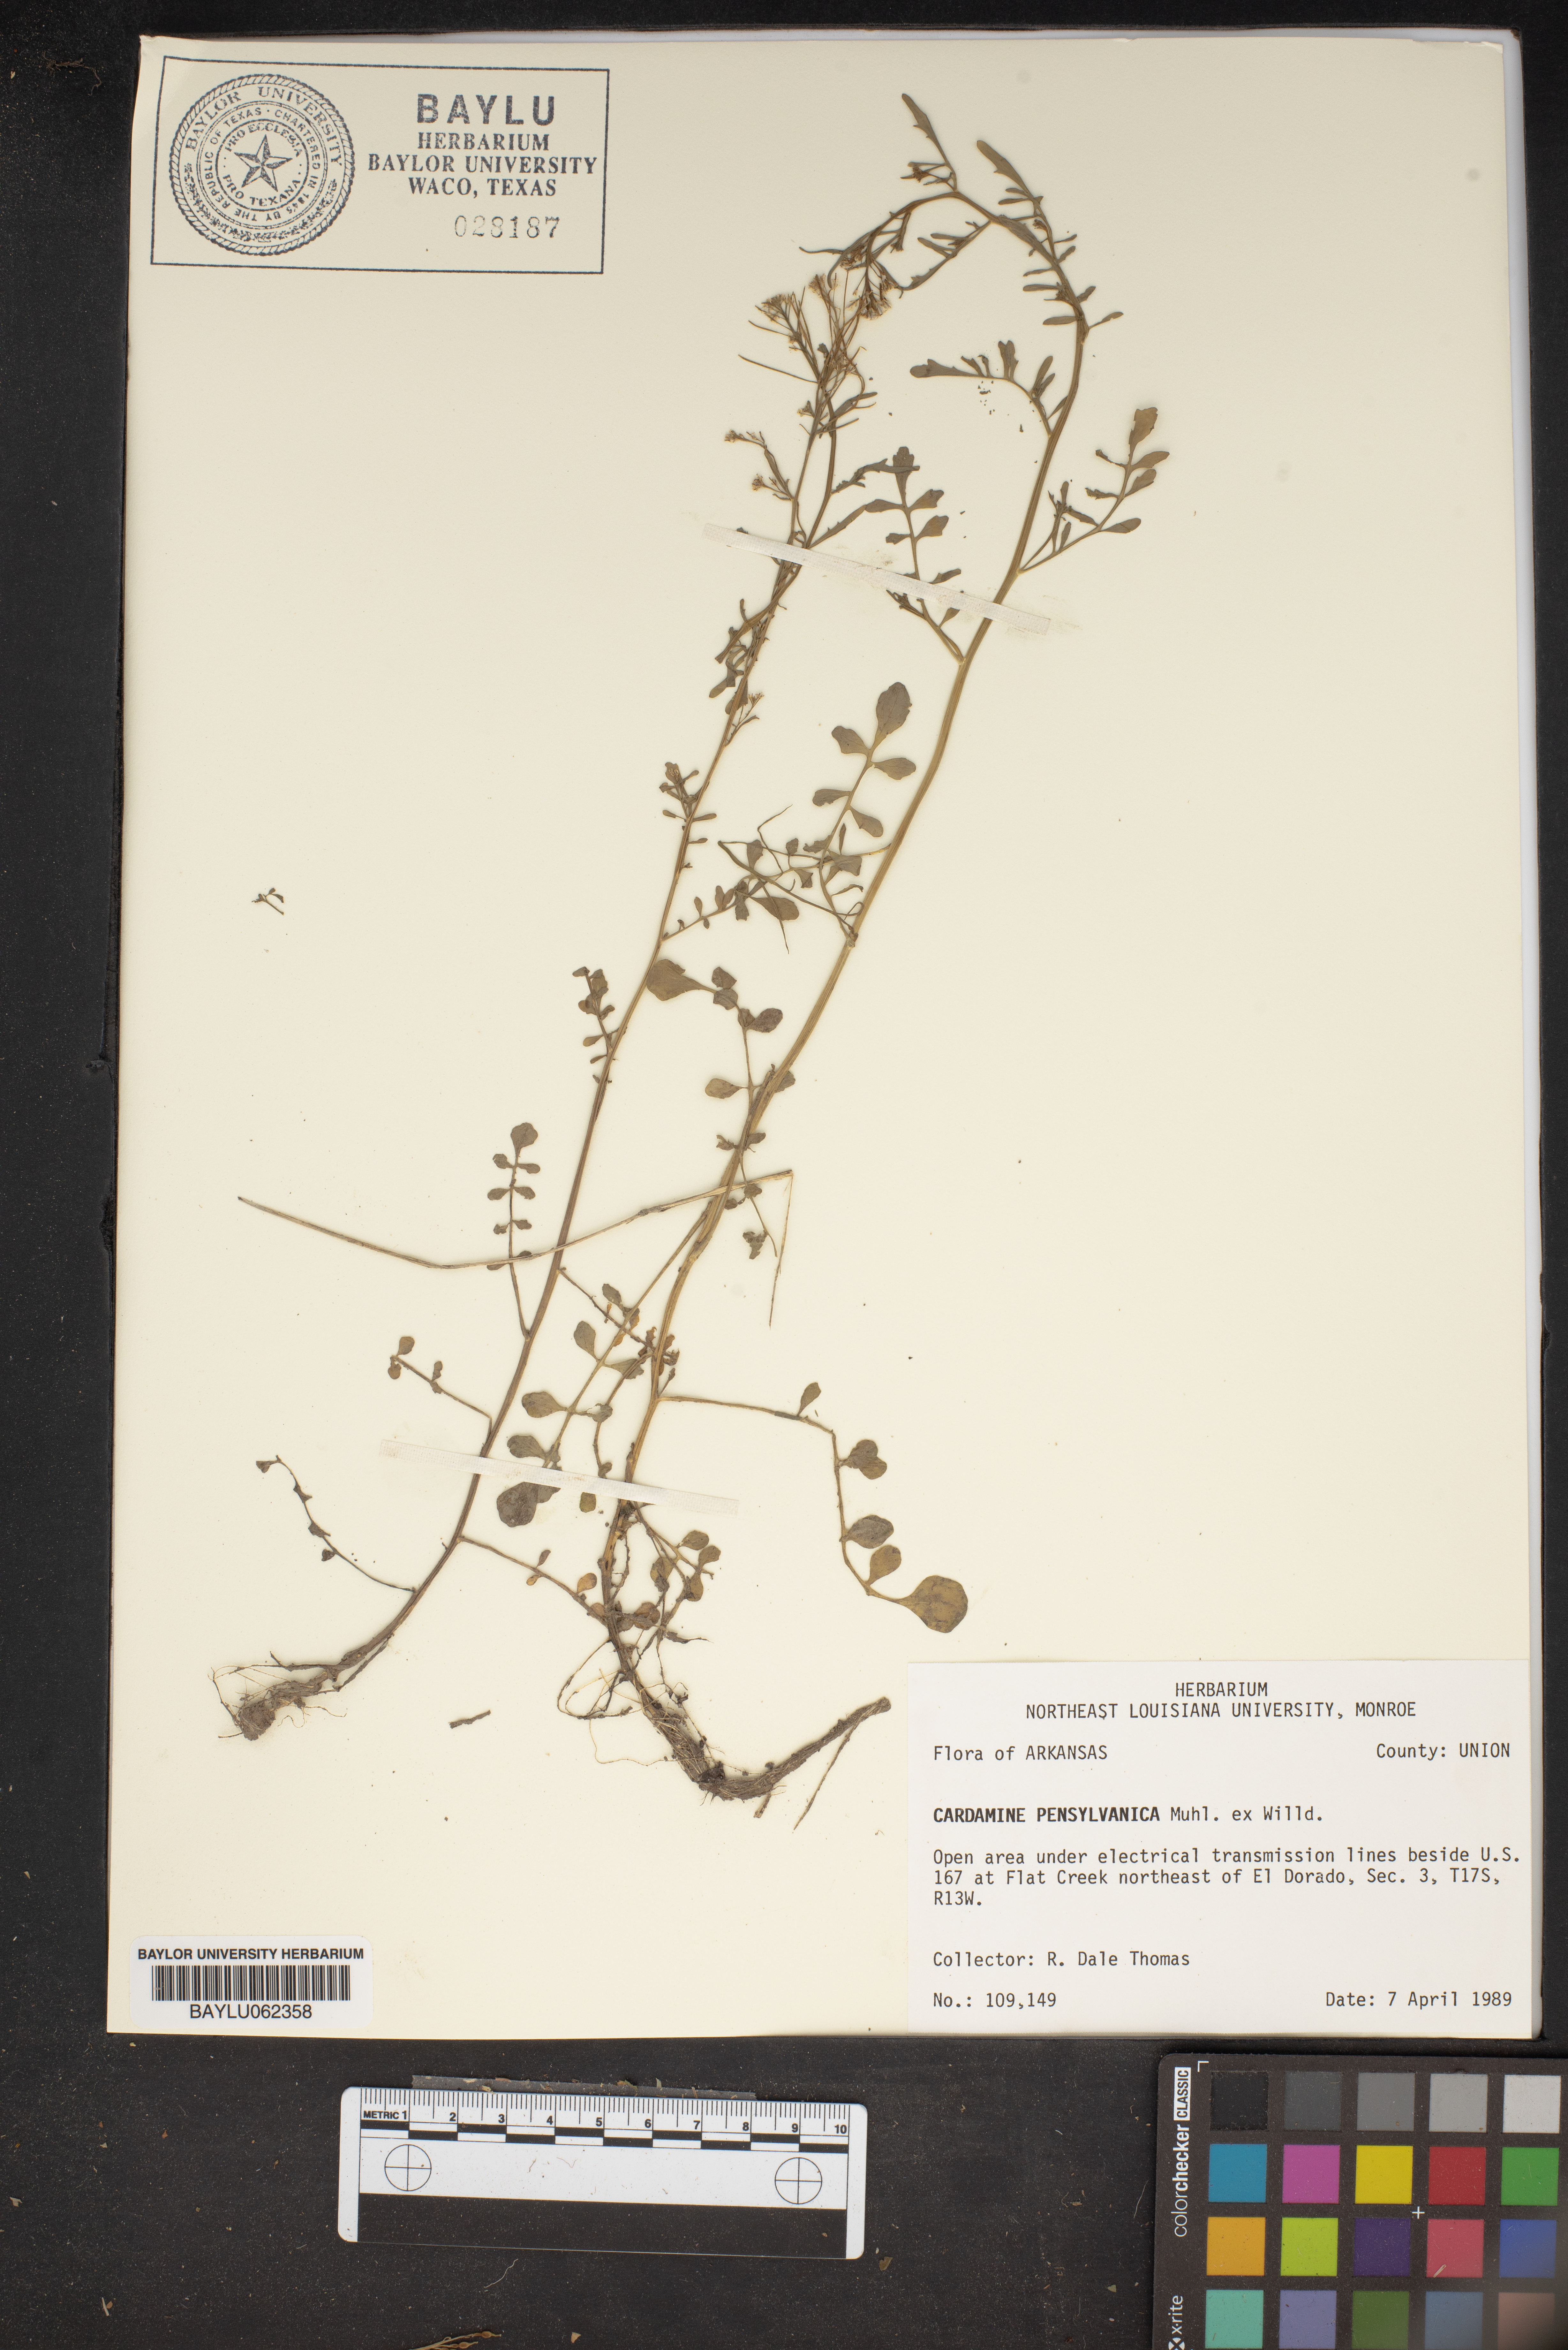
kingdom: Plantae
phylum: Tracheophyta
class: Magnoliopsida
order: Brassicales
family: Brassicaceae
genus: Cardamine
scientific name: Cardamine pensylvanica
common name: Pennsylvania bittercress
